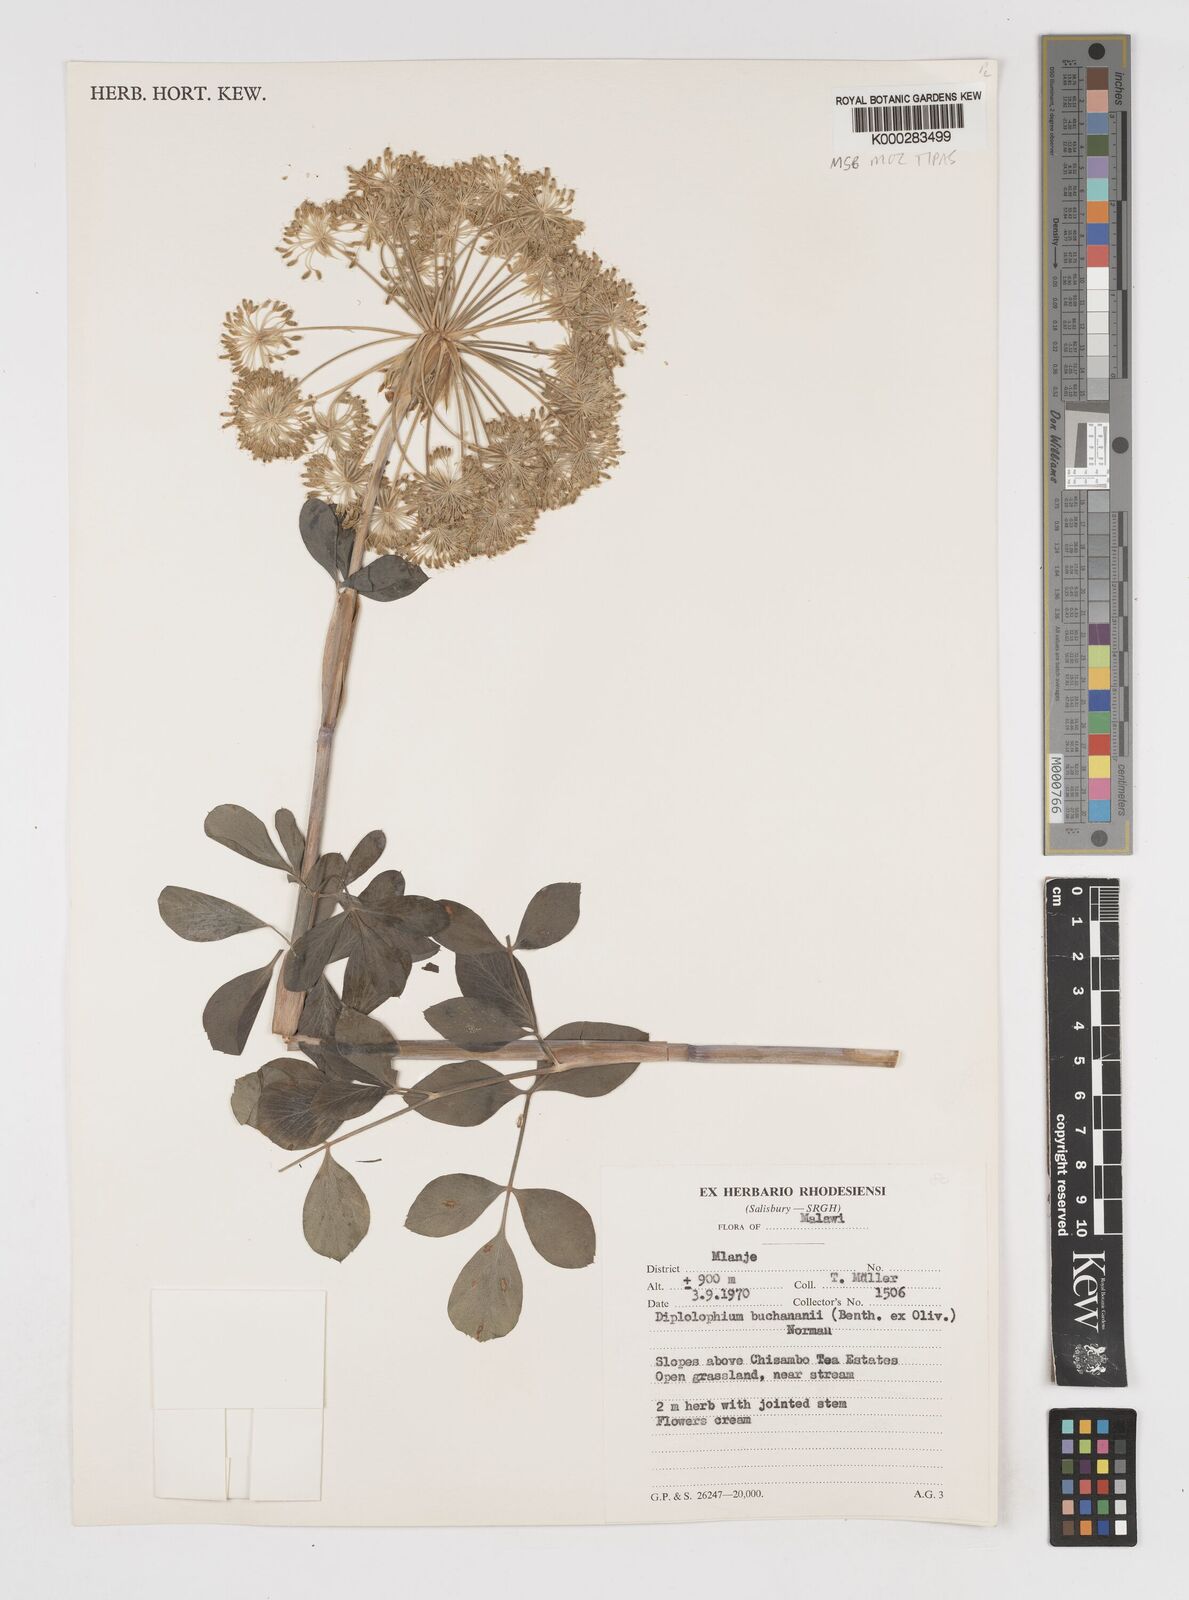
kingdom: Plantae
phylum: Tracheophyta
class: Magnoliopsida
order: Apiales
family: Apiaceae
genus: Diplolophium
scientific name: Diplolophium buchananii
